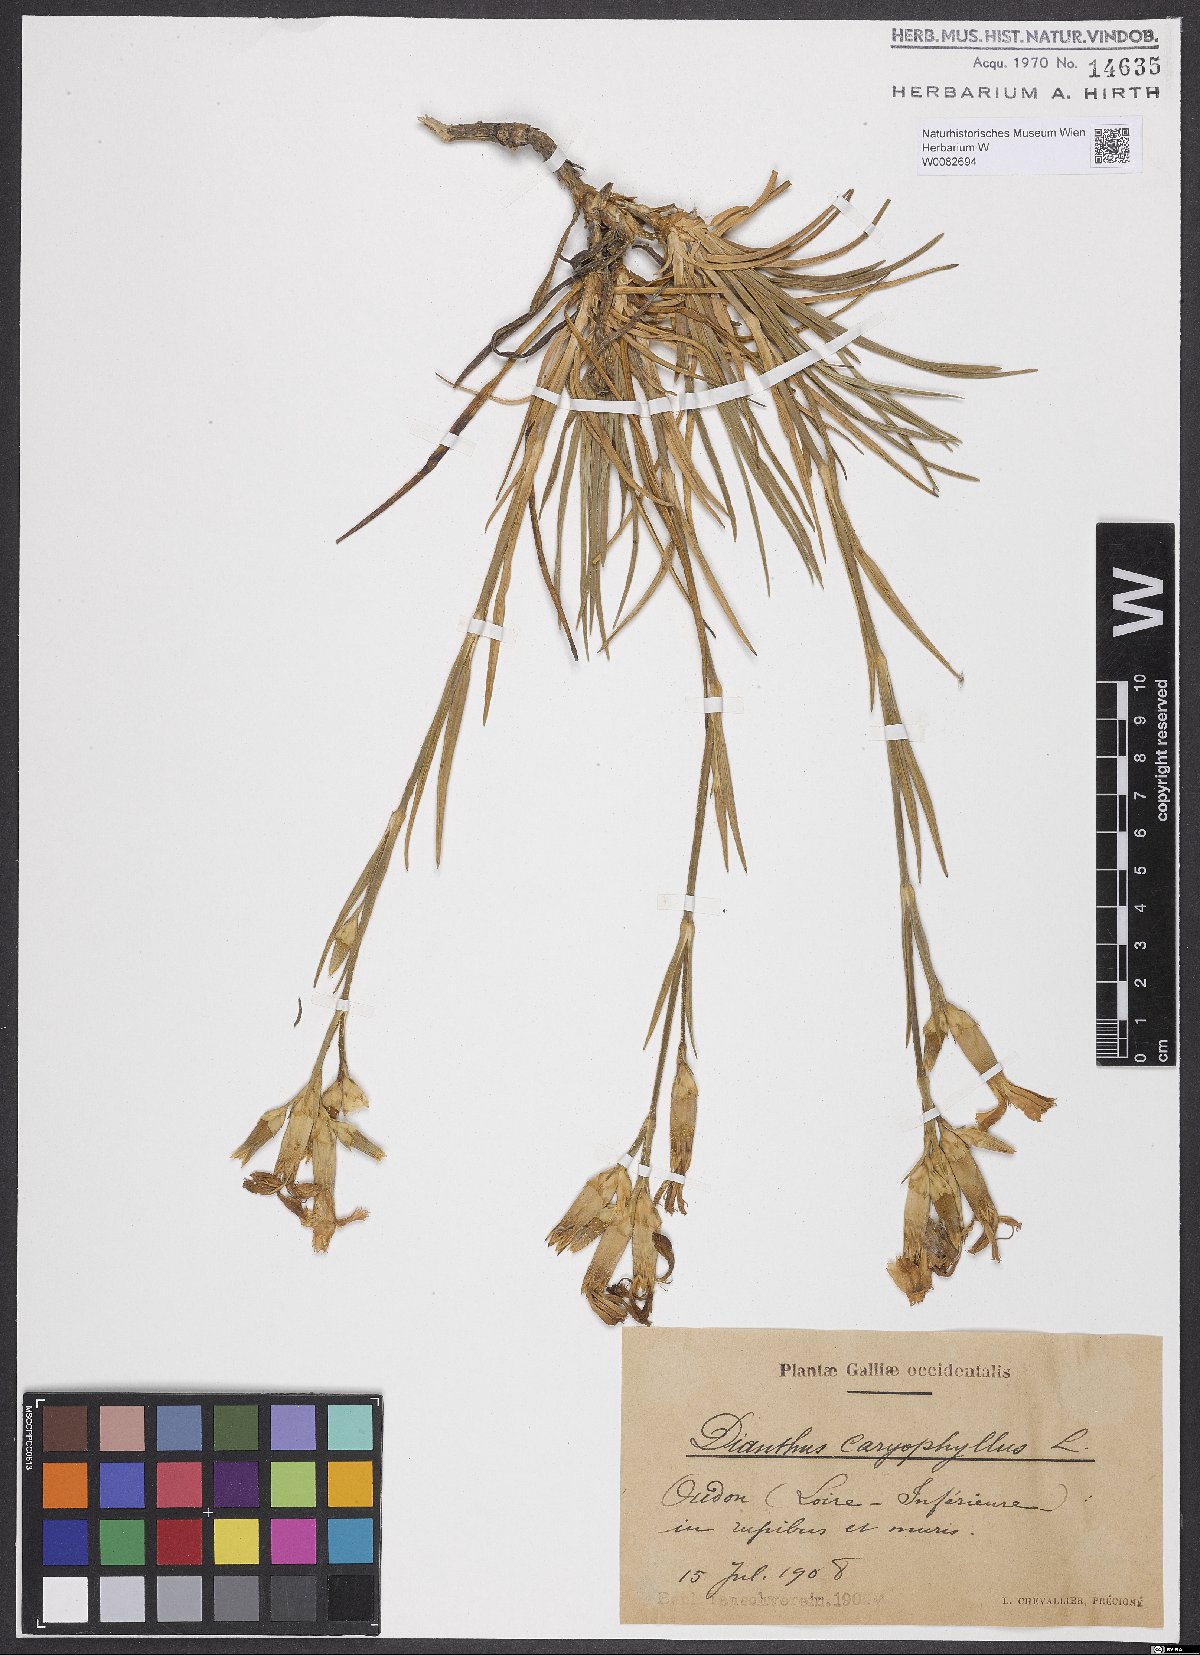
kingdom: Plantae
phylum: Tracheophyta
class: Magnoliopsida
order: Caryophyllales
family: Caryophyllaceae
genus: Dianthus
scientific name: Dianthus caryophyllus
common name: Clove pink
